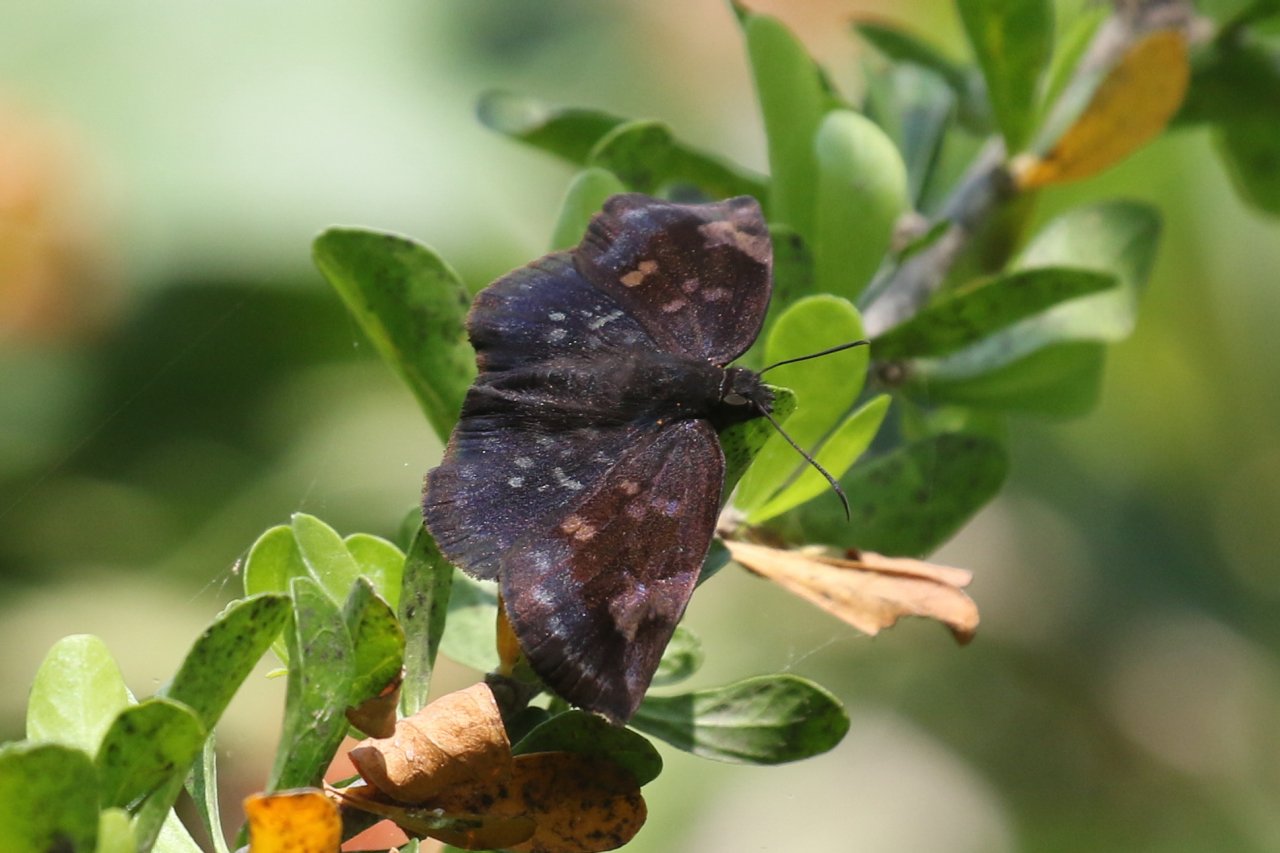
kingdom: Animalia
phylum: Arthropoda
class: Insecta
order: Lepidoptera
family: Hesperiidae
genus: Achlyodes
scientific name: Achlyodes thraso
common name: Sickle-winged Skipper
